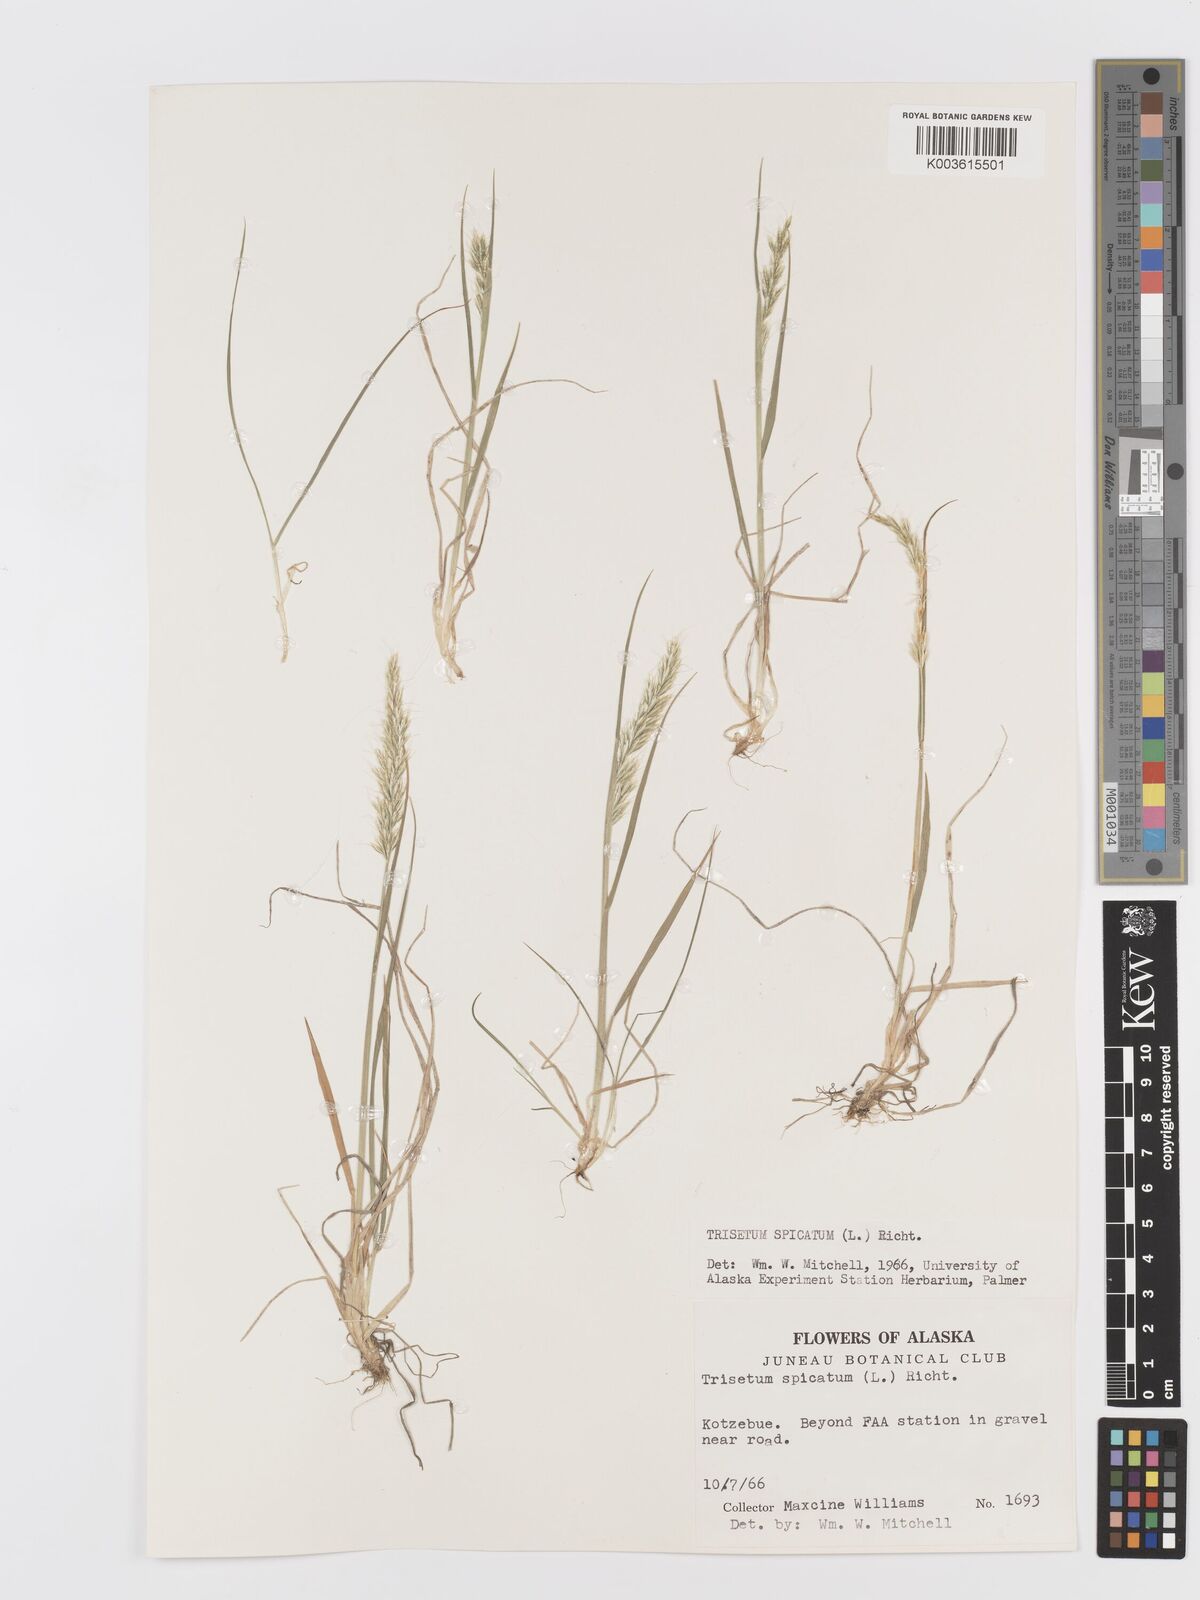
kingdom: Plantae
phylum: Tracheophyta
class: Liliopsida
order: Poales
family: Poaceae
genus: Koeleria
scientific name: Koeleria spicata
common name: Mountain trisetum
